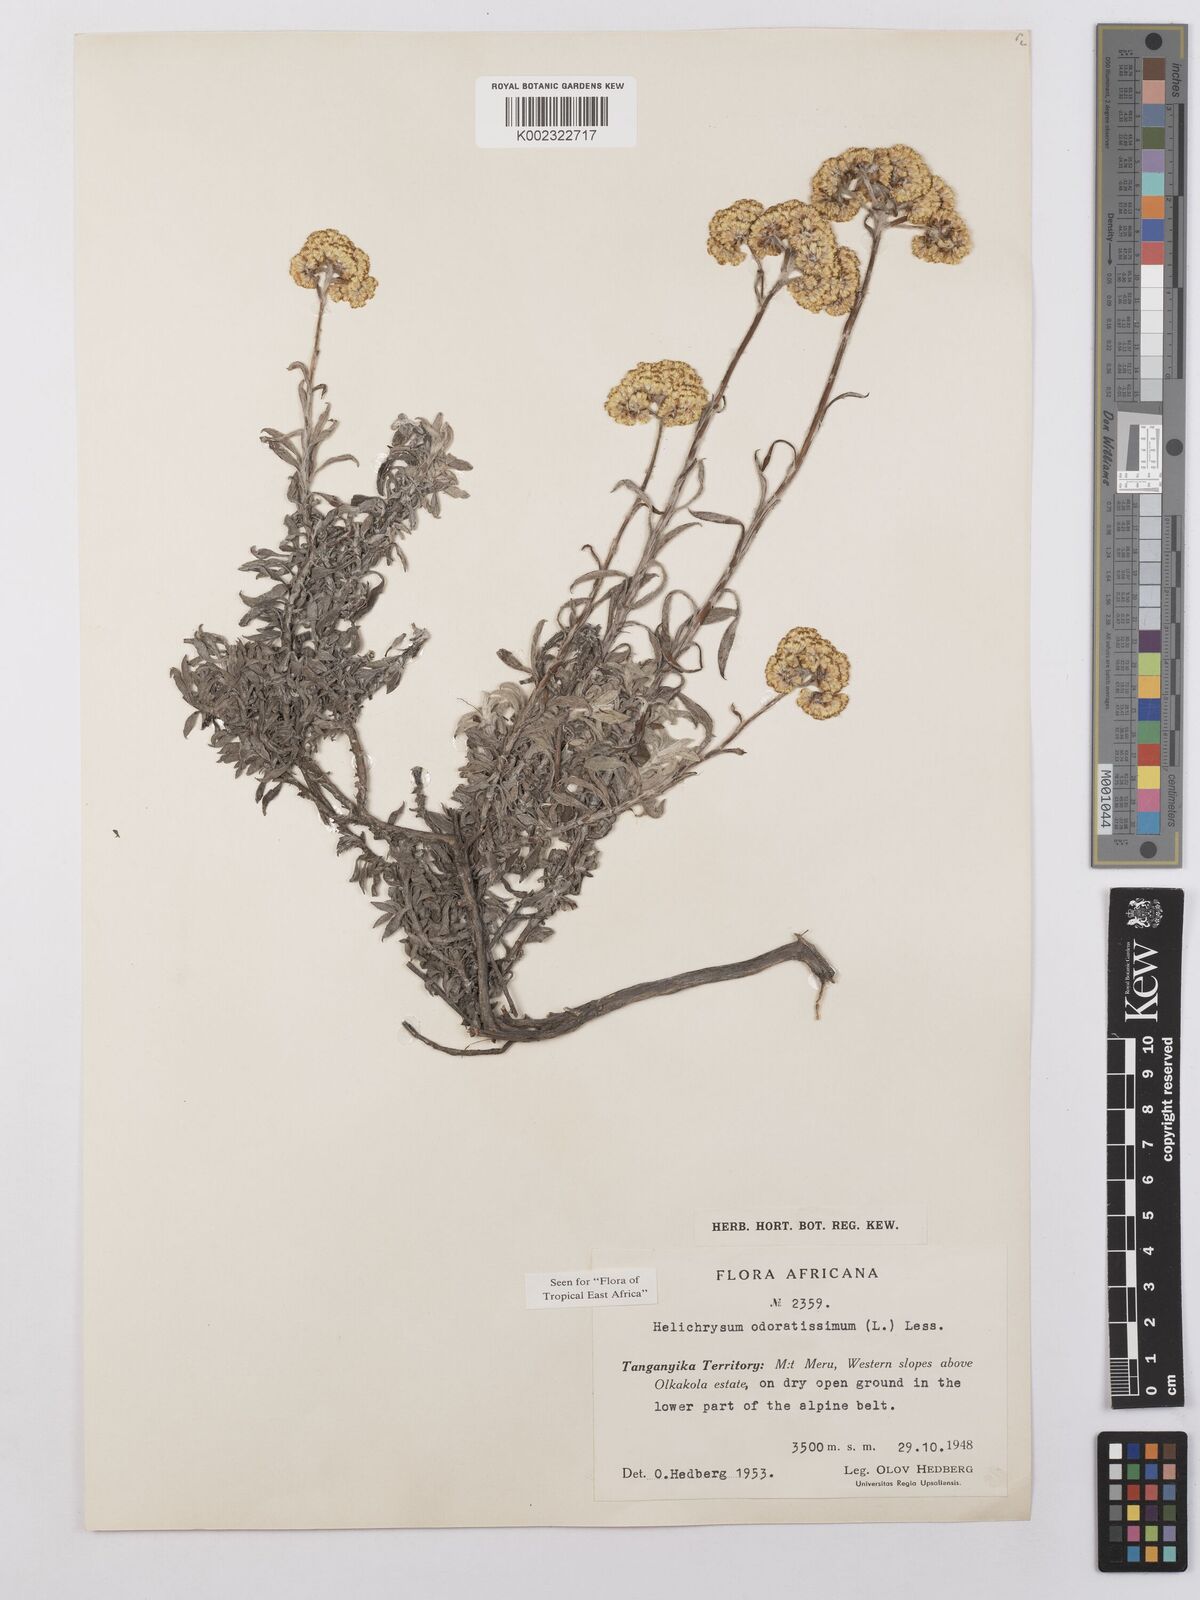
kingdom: Plantae
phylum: Tracheophyta
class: Magnoliopsida
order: Asterales
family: Asteraceae
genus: Helichrysum
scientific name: Helichrysum odoratissimum
